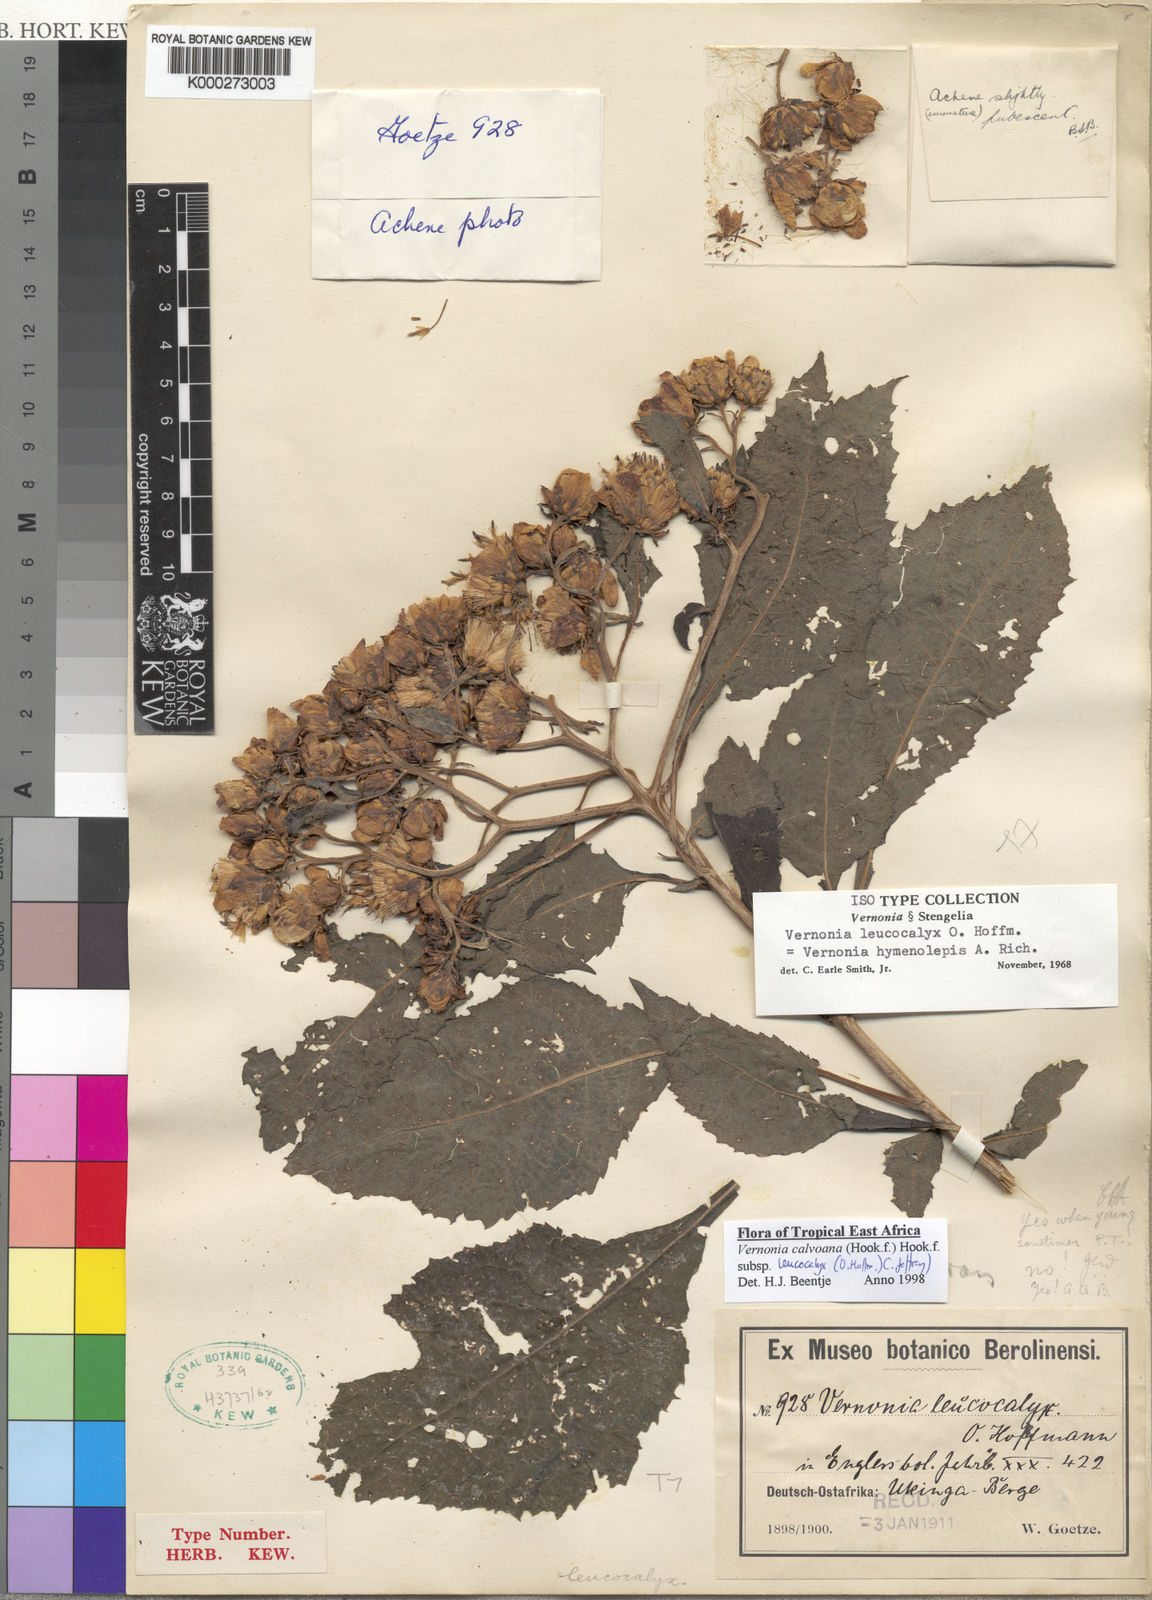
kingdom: Plantae
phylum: Tracheophyta
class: Magnoliopsida
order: Asterales
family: Asteraceae
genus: Baccharoides
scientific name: Baccharoides calvoana
